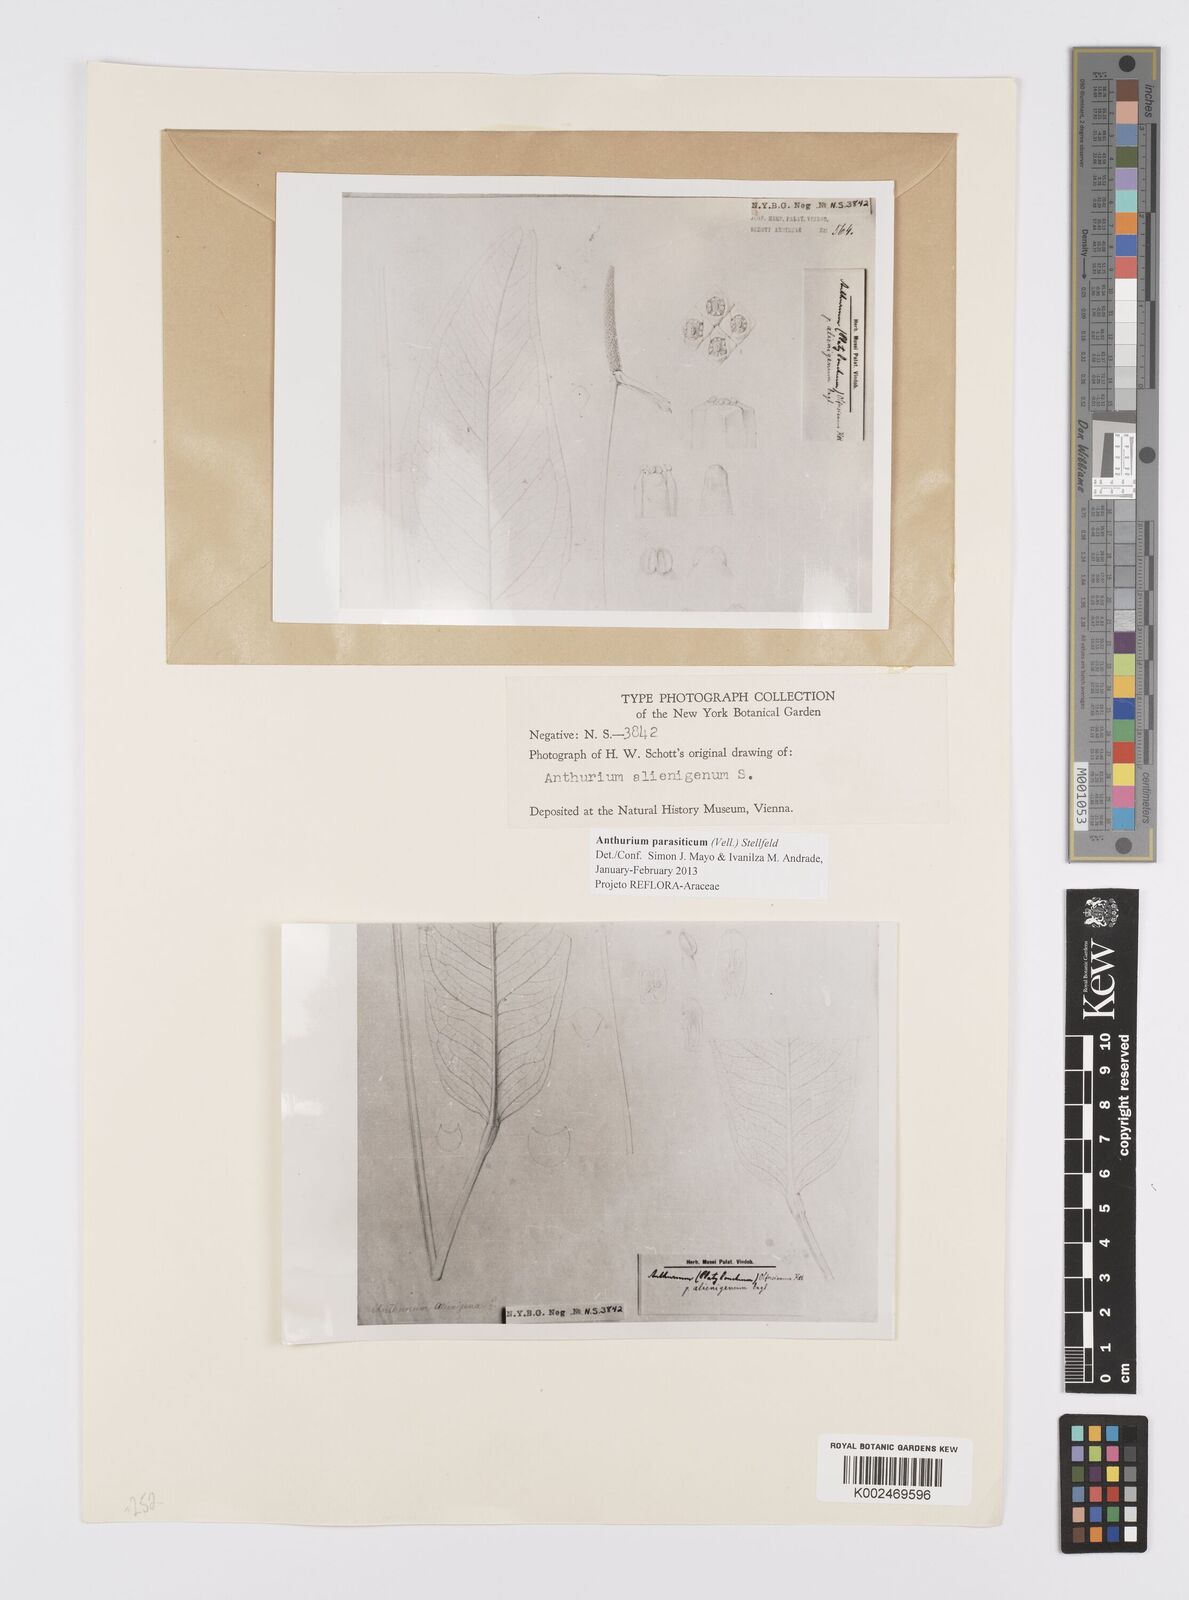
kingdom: Plantae
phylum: Tracheophyta
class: Liliopsida
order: Alismatales
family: Araceae
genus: Anthurium
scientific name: Anthurium parasiticum
